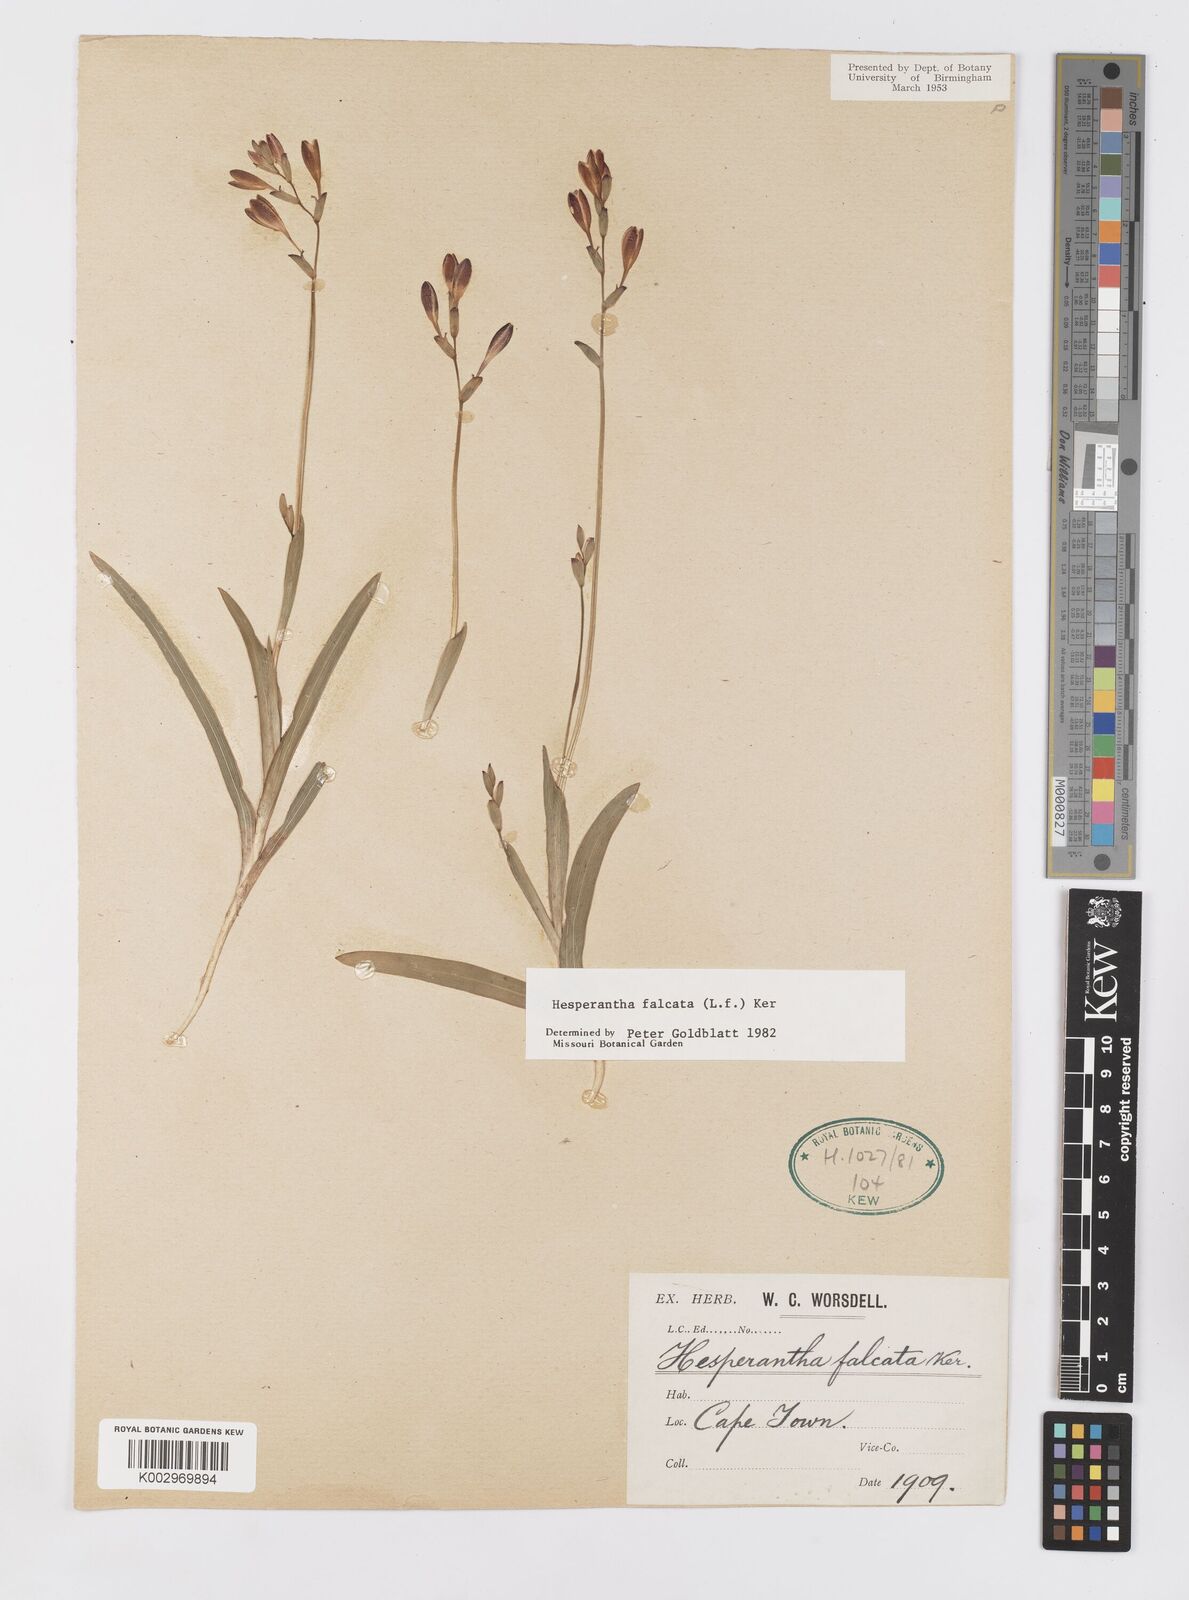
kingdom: Plantae
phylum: Tracheophyta
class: Liliopsida
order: Asparagales
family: Iridaceae
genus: Hesperantha
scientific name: Hesperantha falcata
